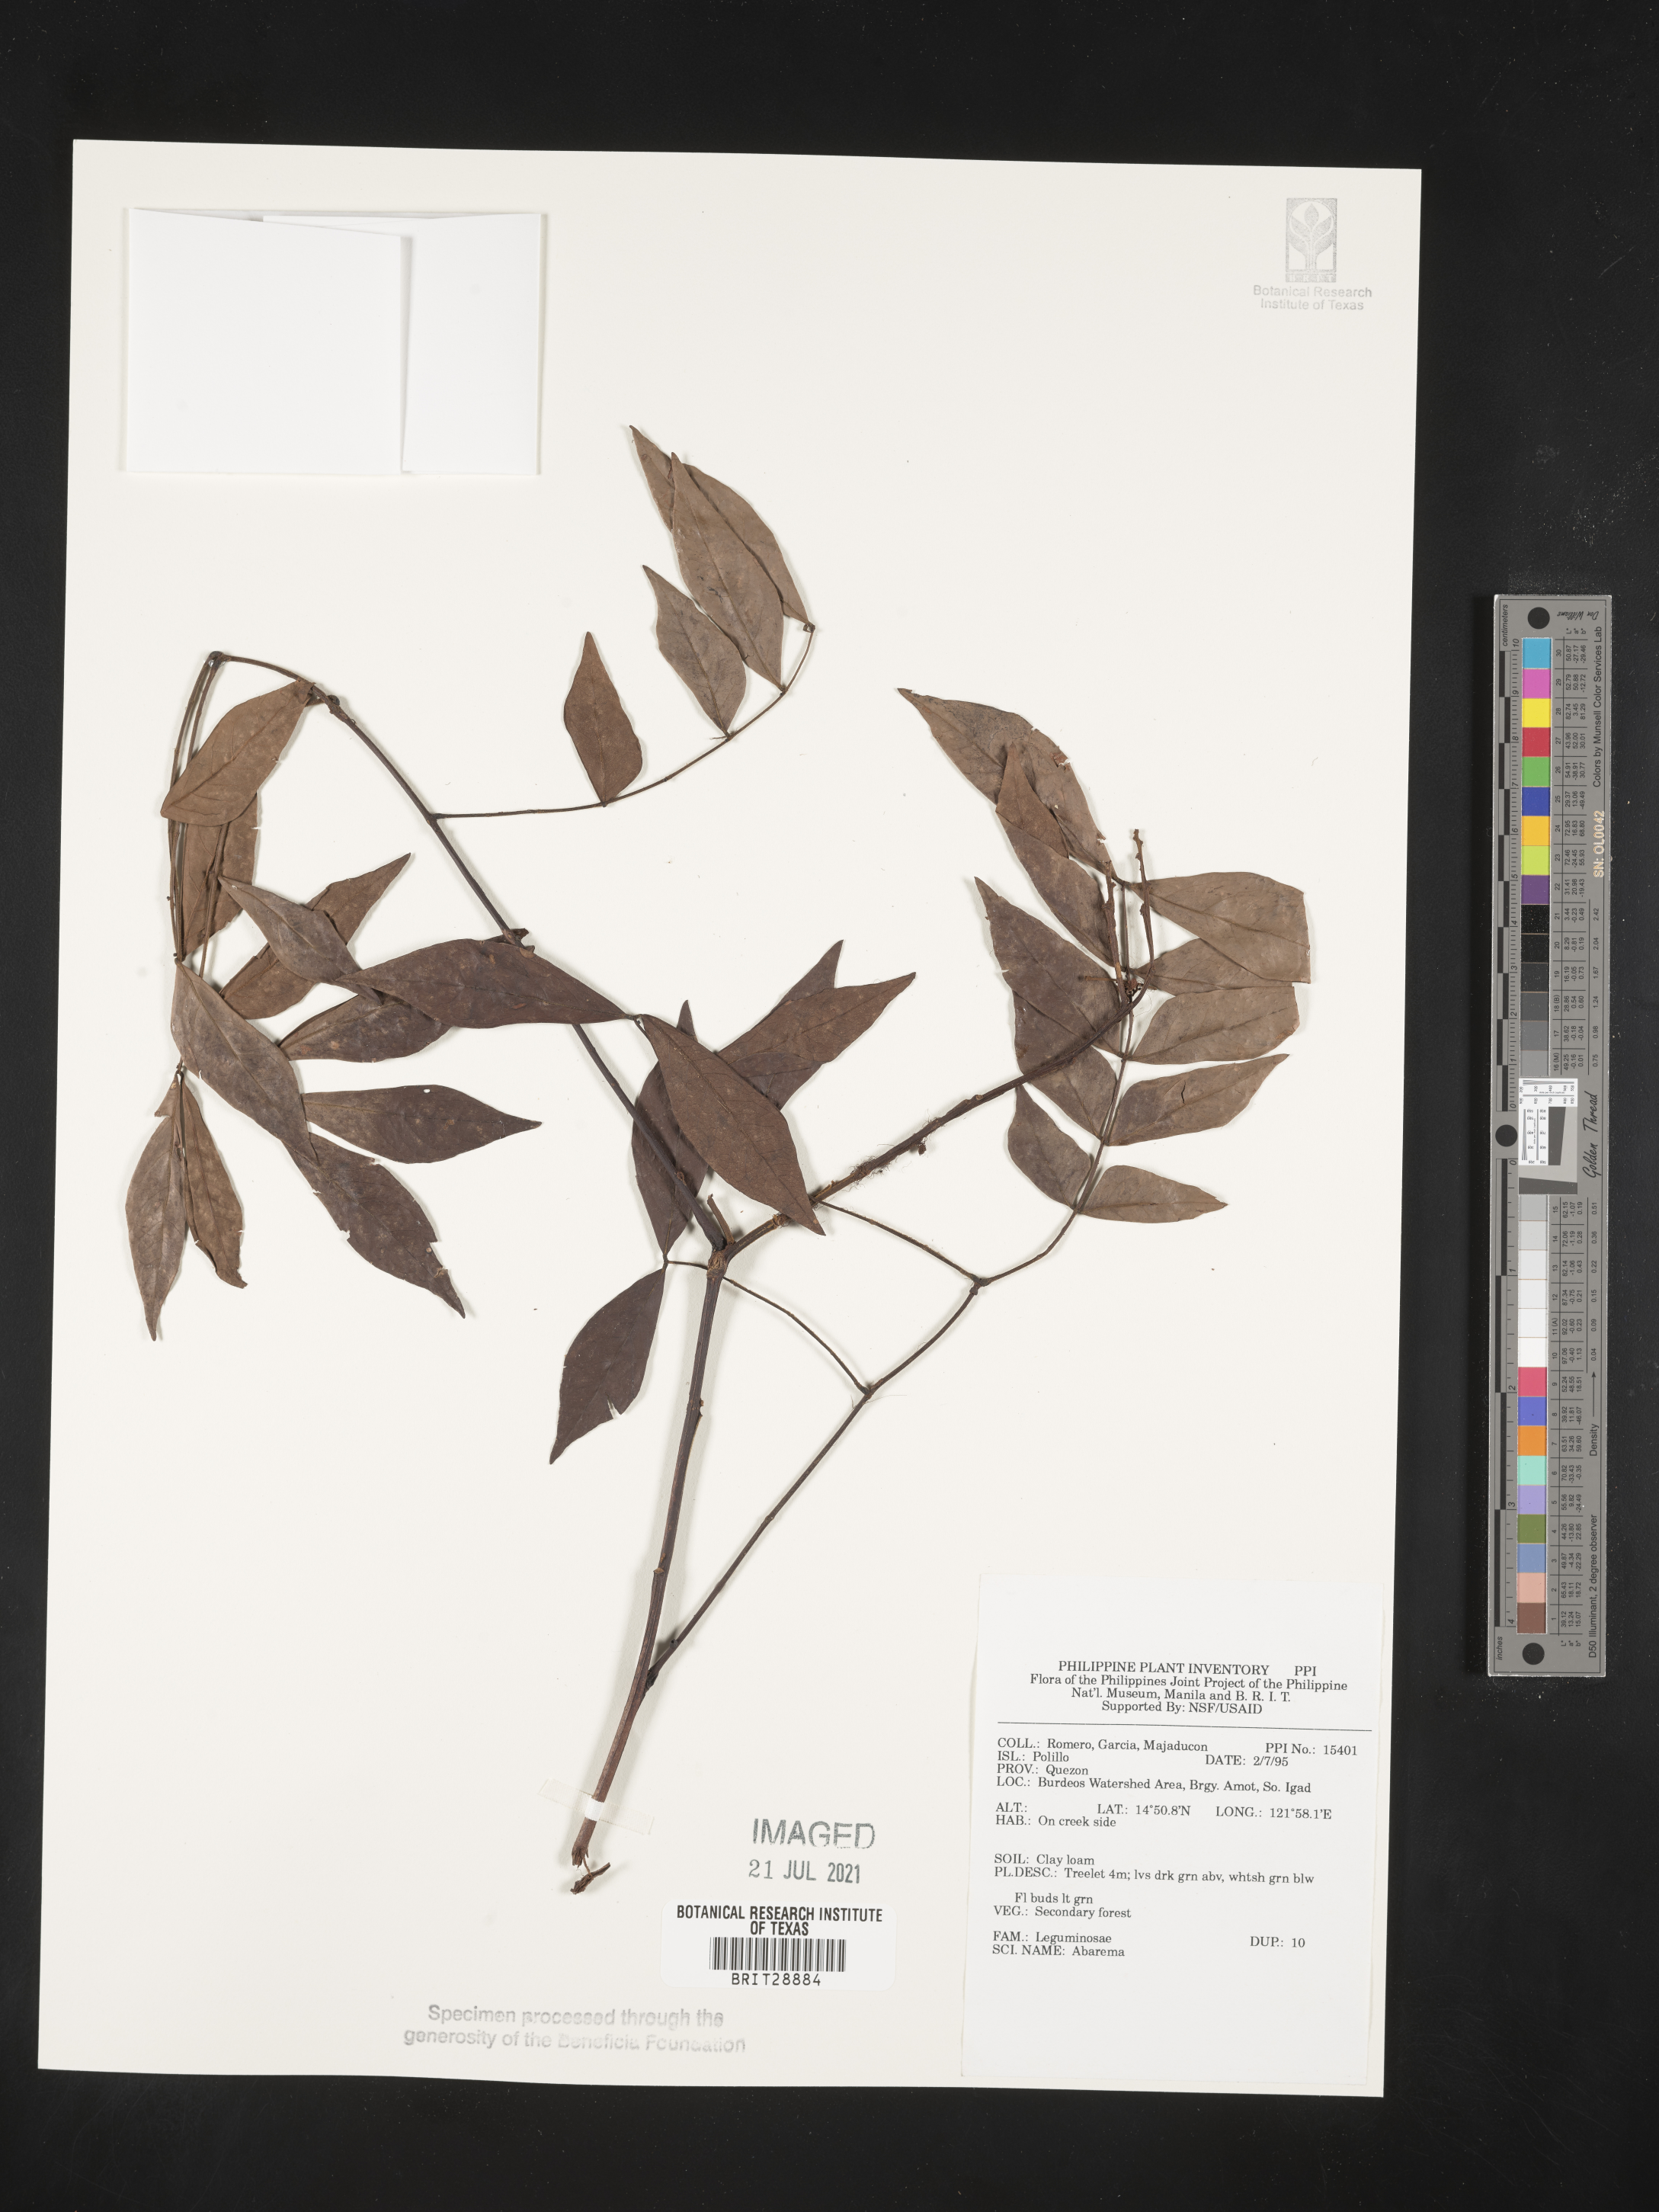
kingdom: Plantae
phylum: Tracheophyta
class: Magnoliopsida
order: Fabales
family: Fabaceae
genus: Abarema
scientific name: Abarema
